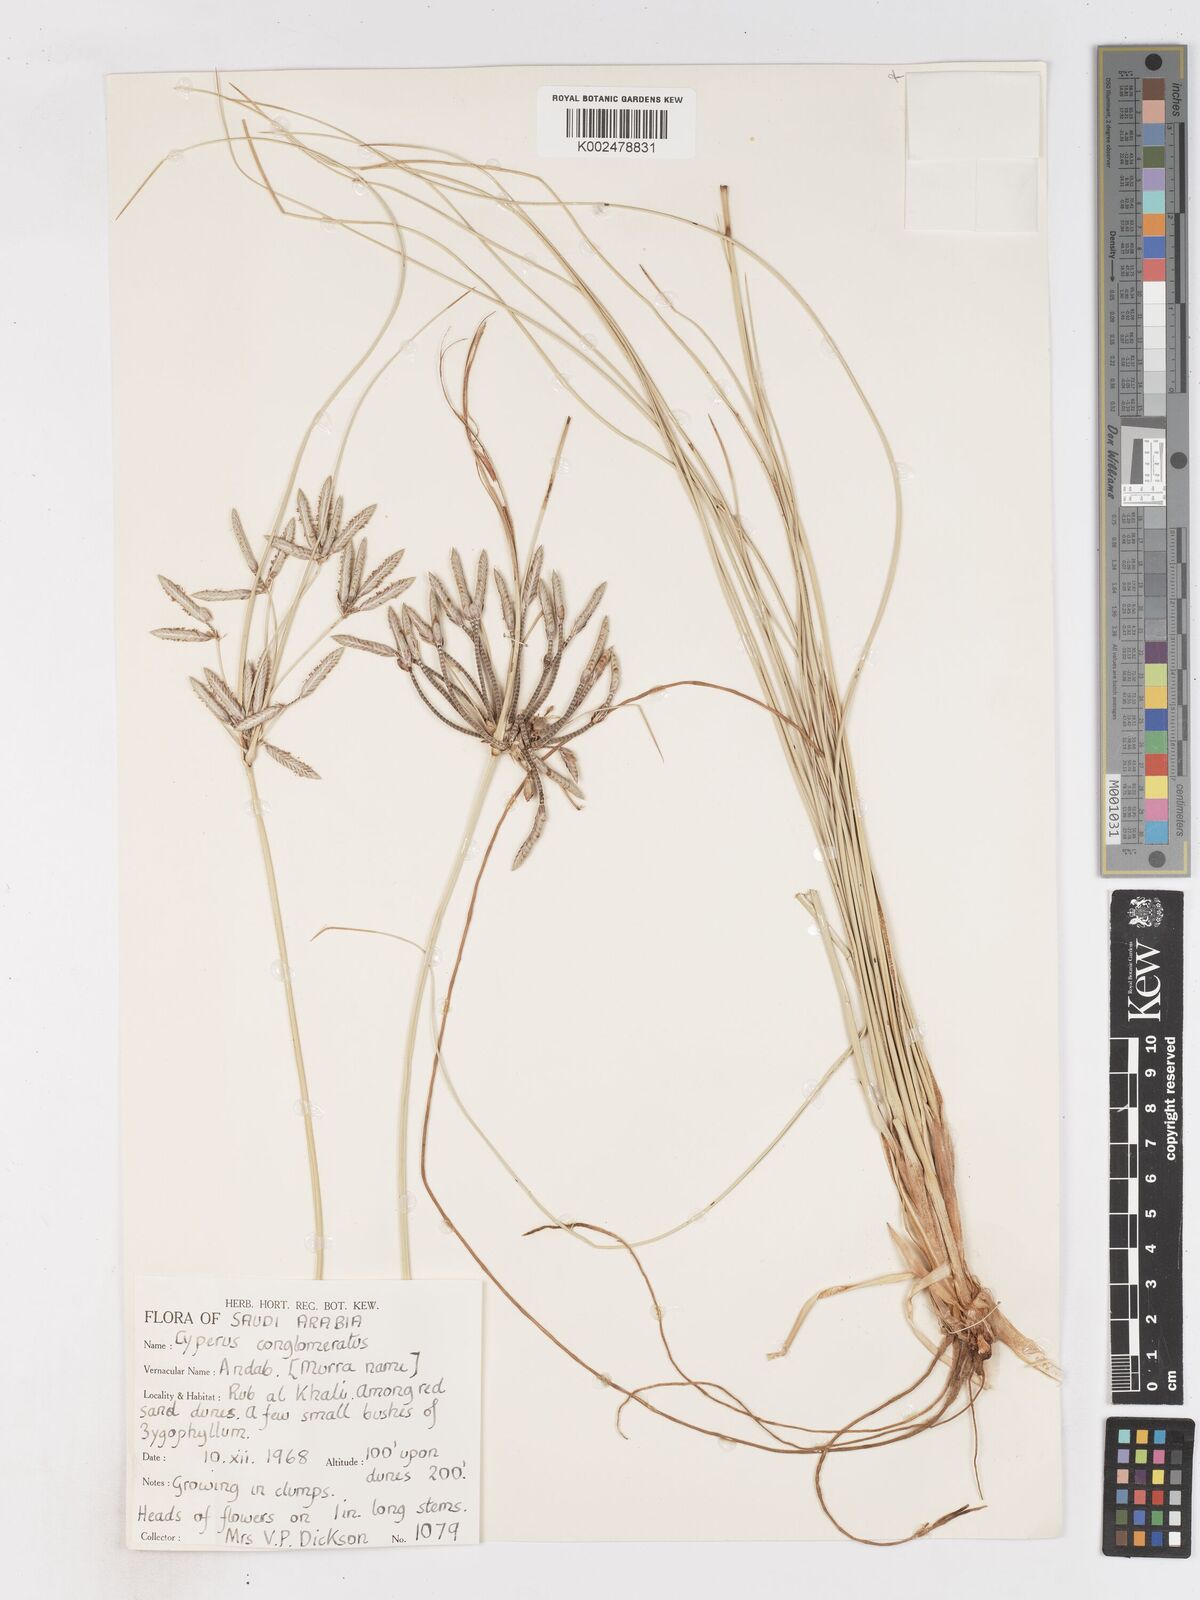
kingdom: Plantae
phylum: Tracheophyta
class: Liliopsida
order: Poales
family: Cyperaceae
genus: Cyperus
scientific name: Cyperus aucheri
